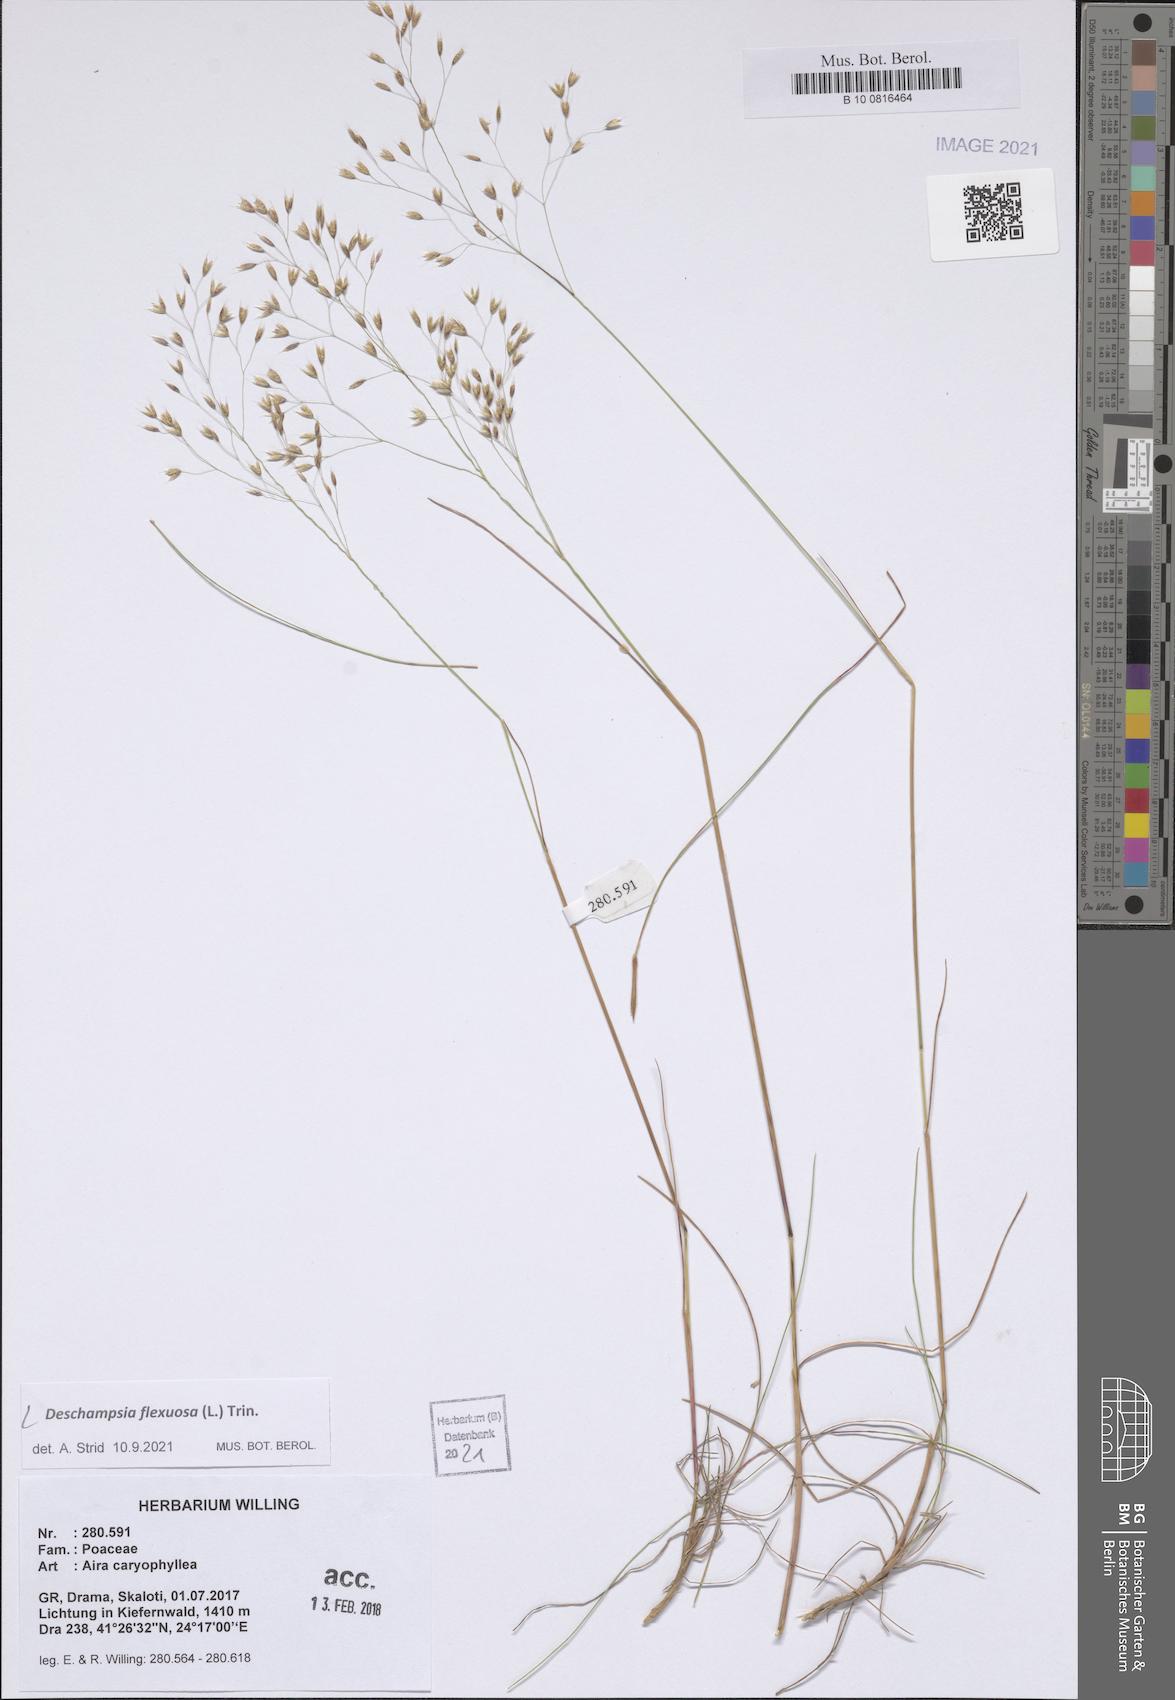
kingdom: Plantae
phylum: Tracheophyta
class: Liliopsida
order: Poales
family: Poaceae
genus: Avenella
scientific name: Avenella flexuosa
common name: Wavy hairgrass
